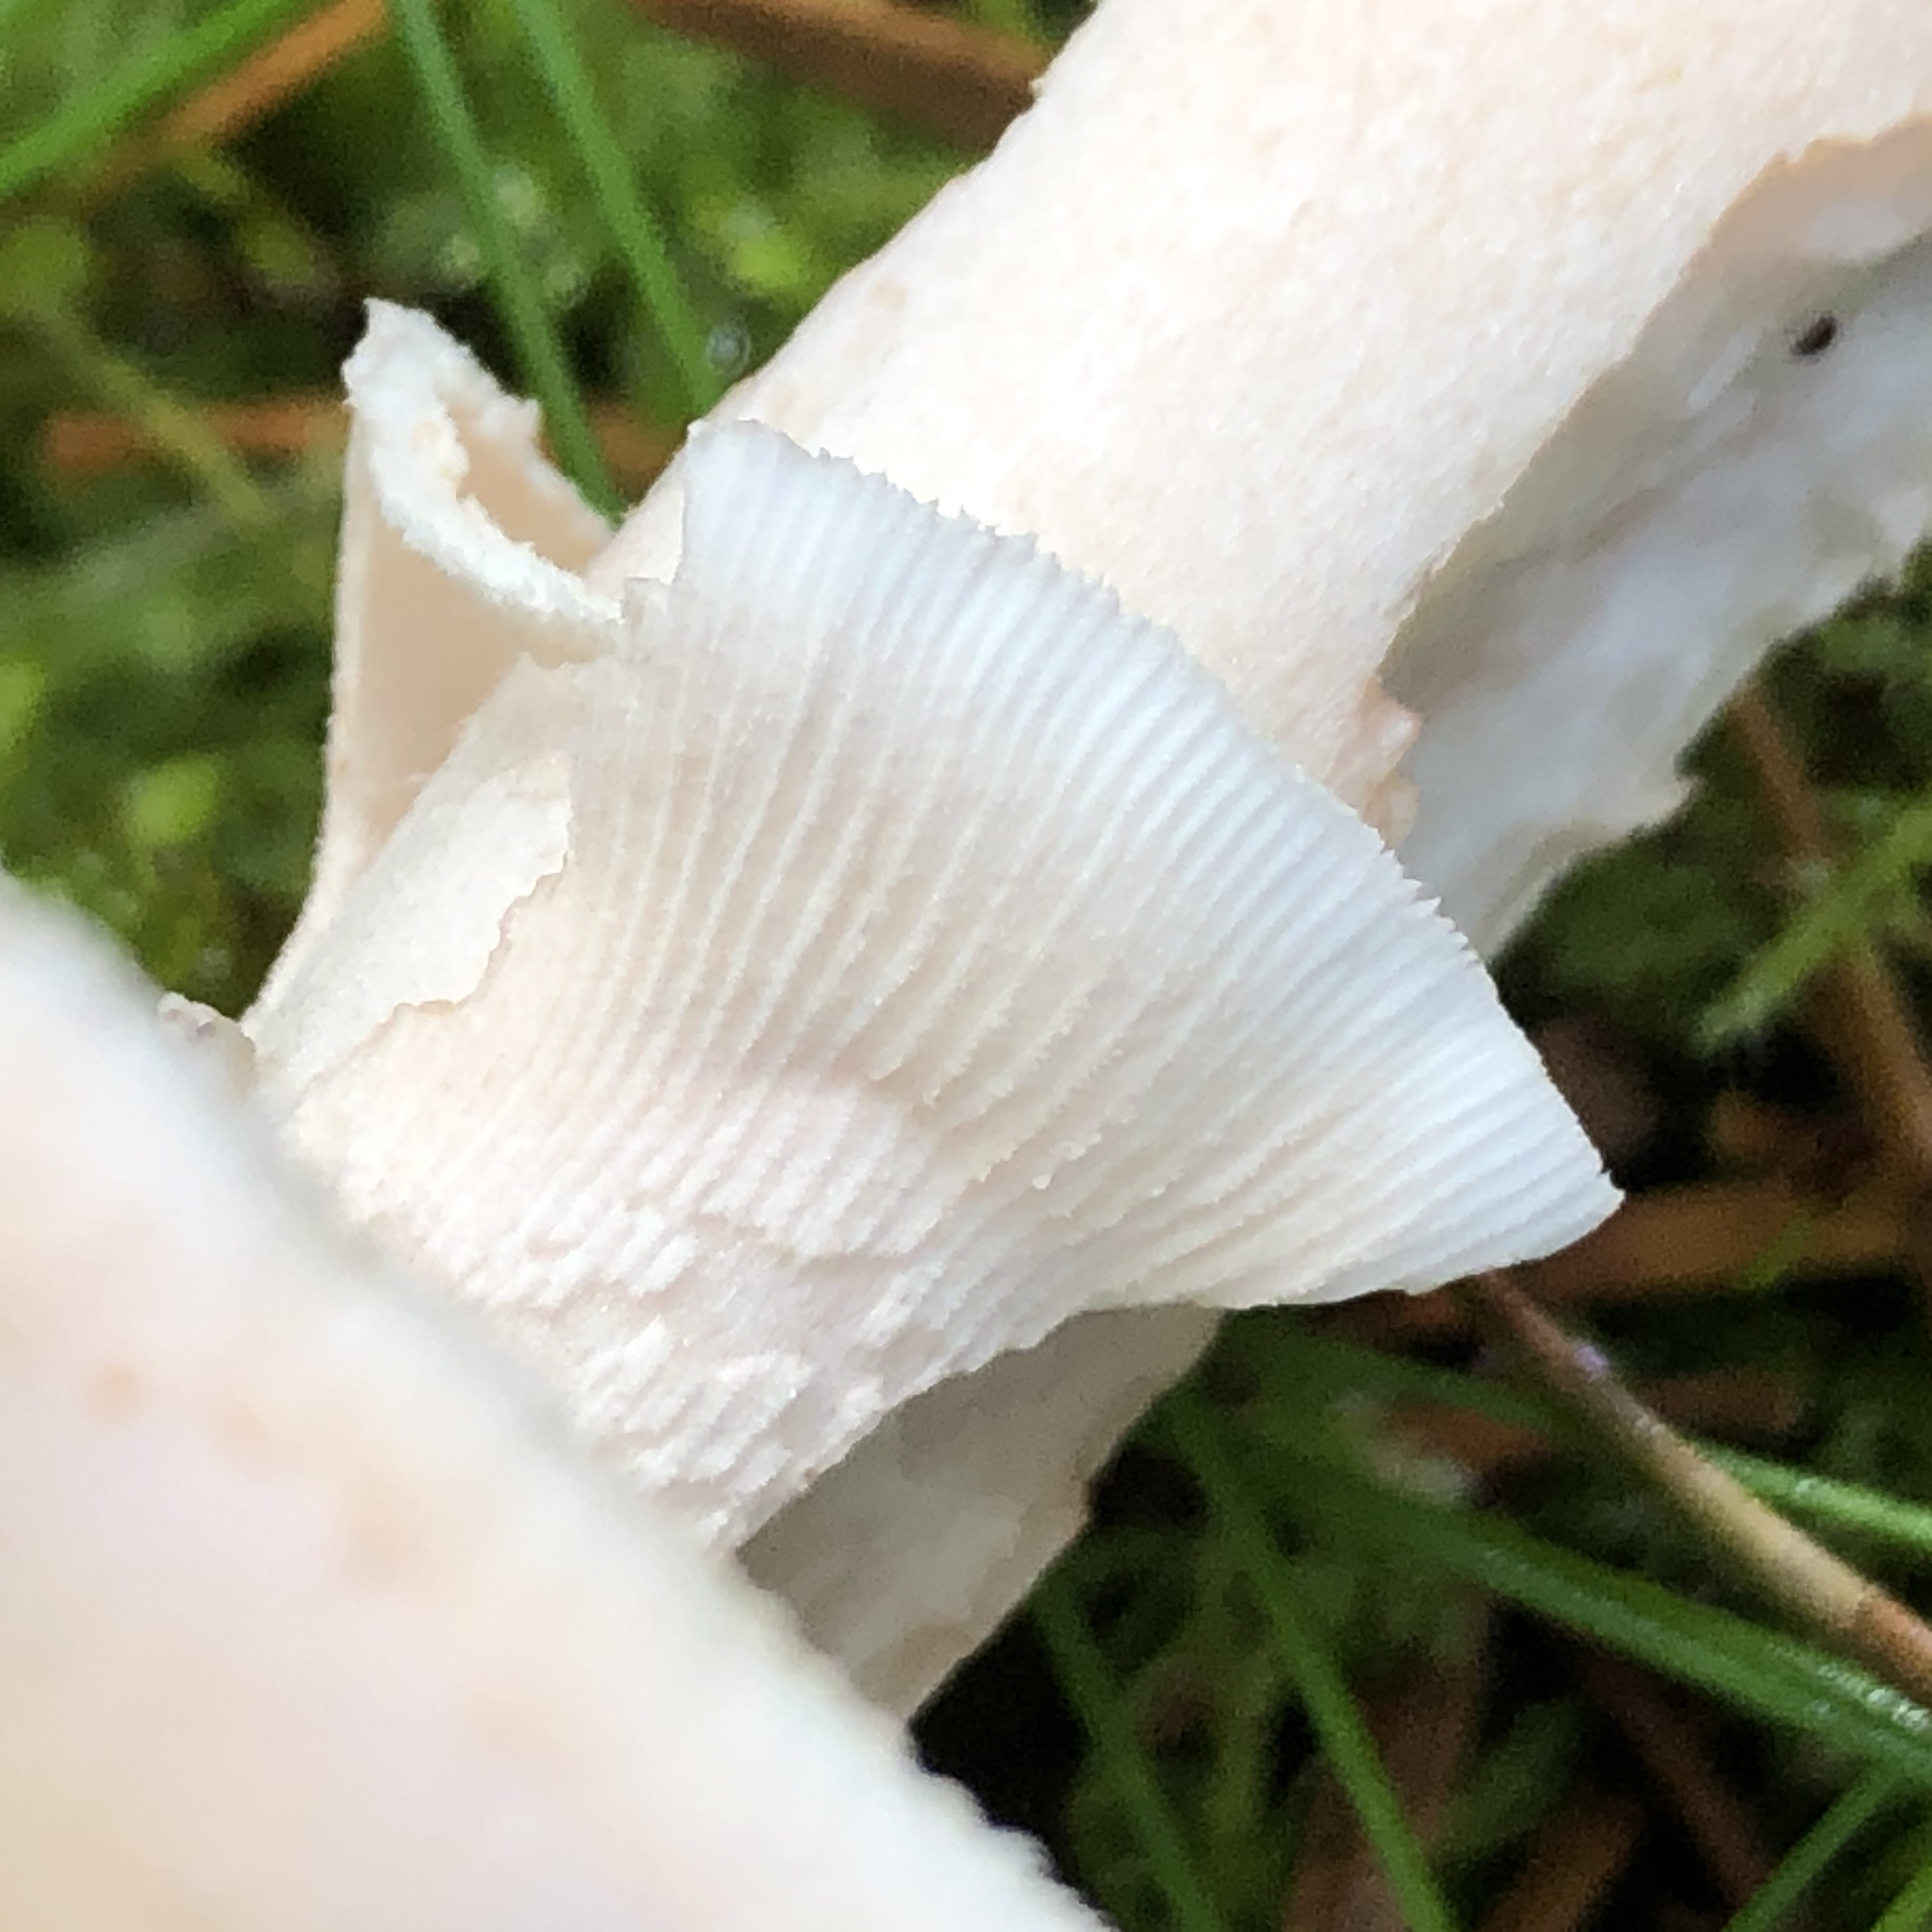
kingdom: Fungi
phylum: Basidiomycota
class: Agaricomycetes
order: Agaricales
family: Amanitaceae
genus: Amanita
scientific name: Amanita rubescens
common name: rødmende fluesvamp
